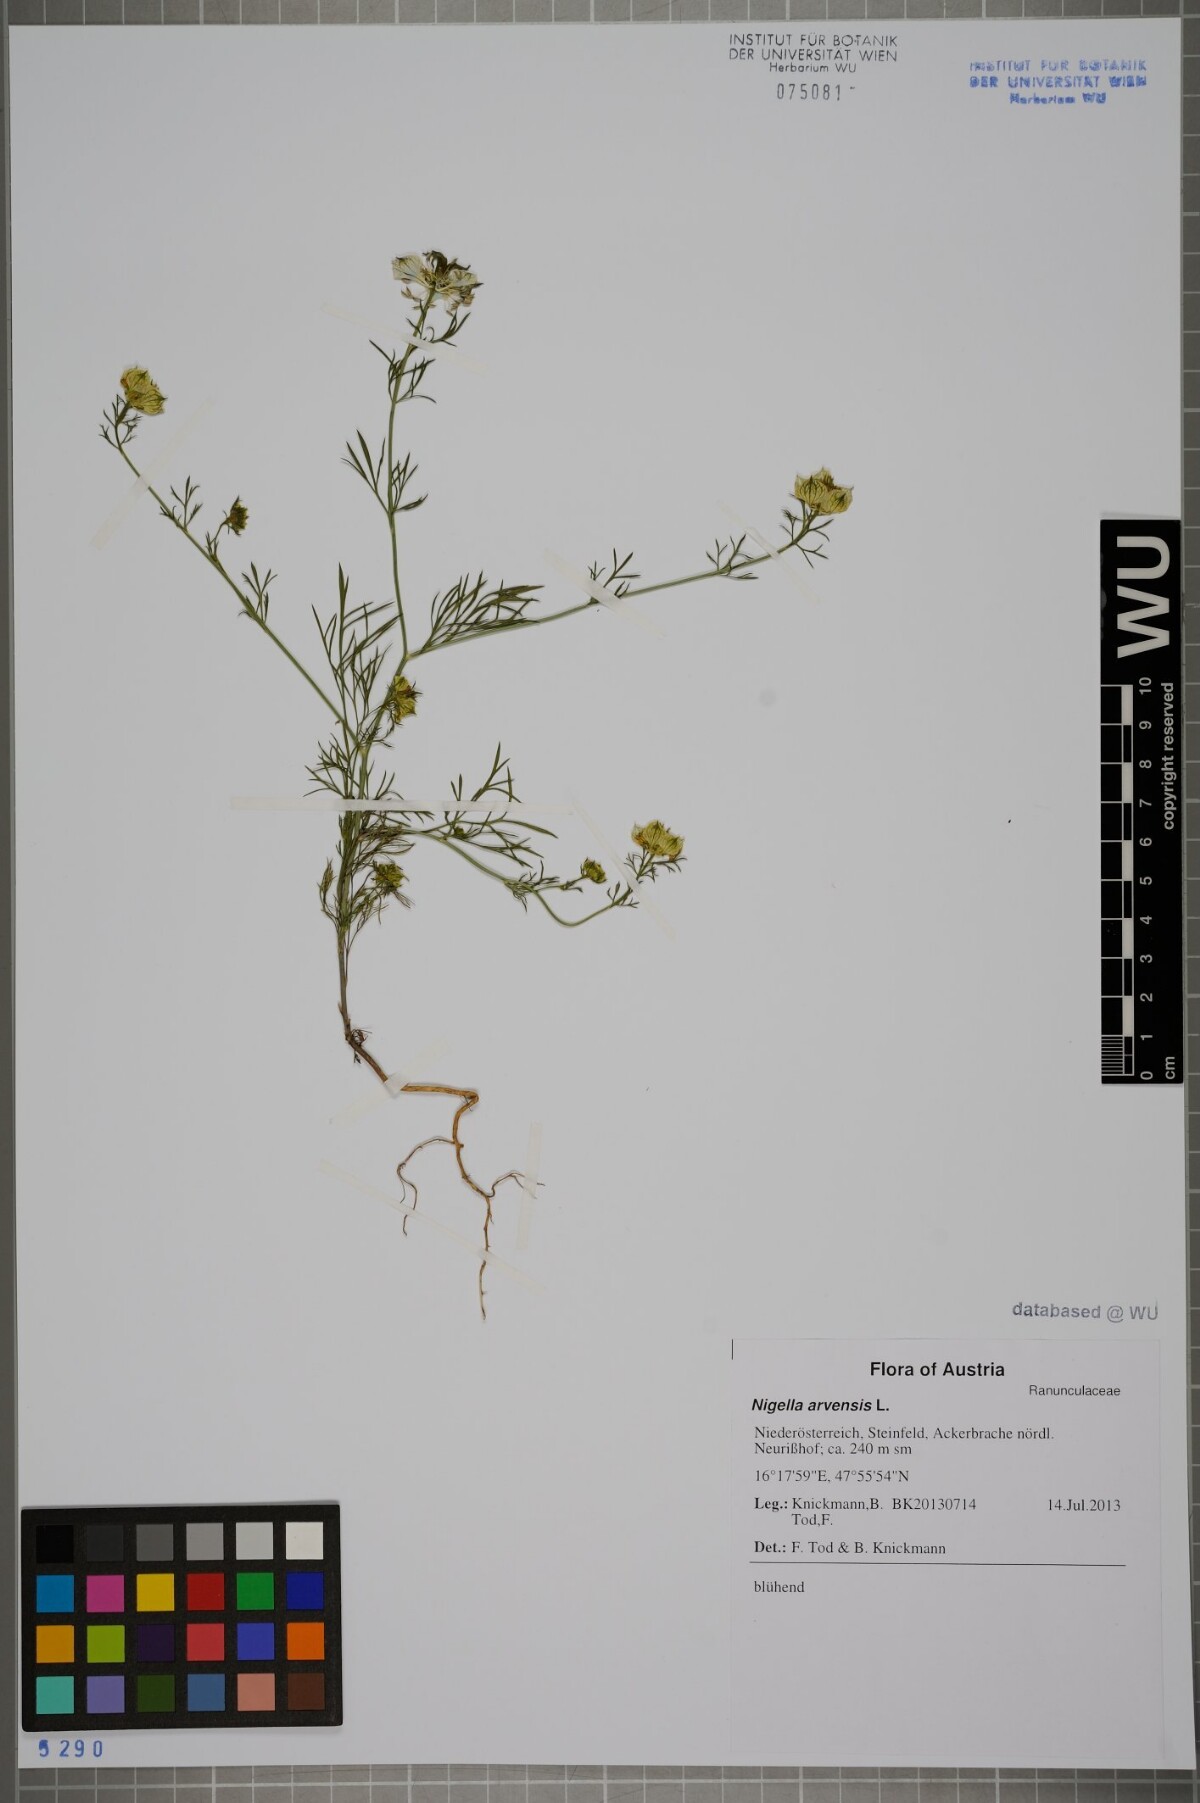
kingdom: Plantae
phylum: Tracheophyta
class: Magnoliopsida
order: Ranunculales
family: Ranunculaceae
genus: Nigella
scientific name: Nigella arvensis
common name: Wild fennel-flower
